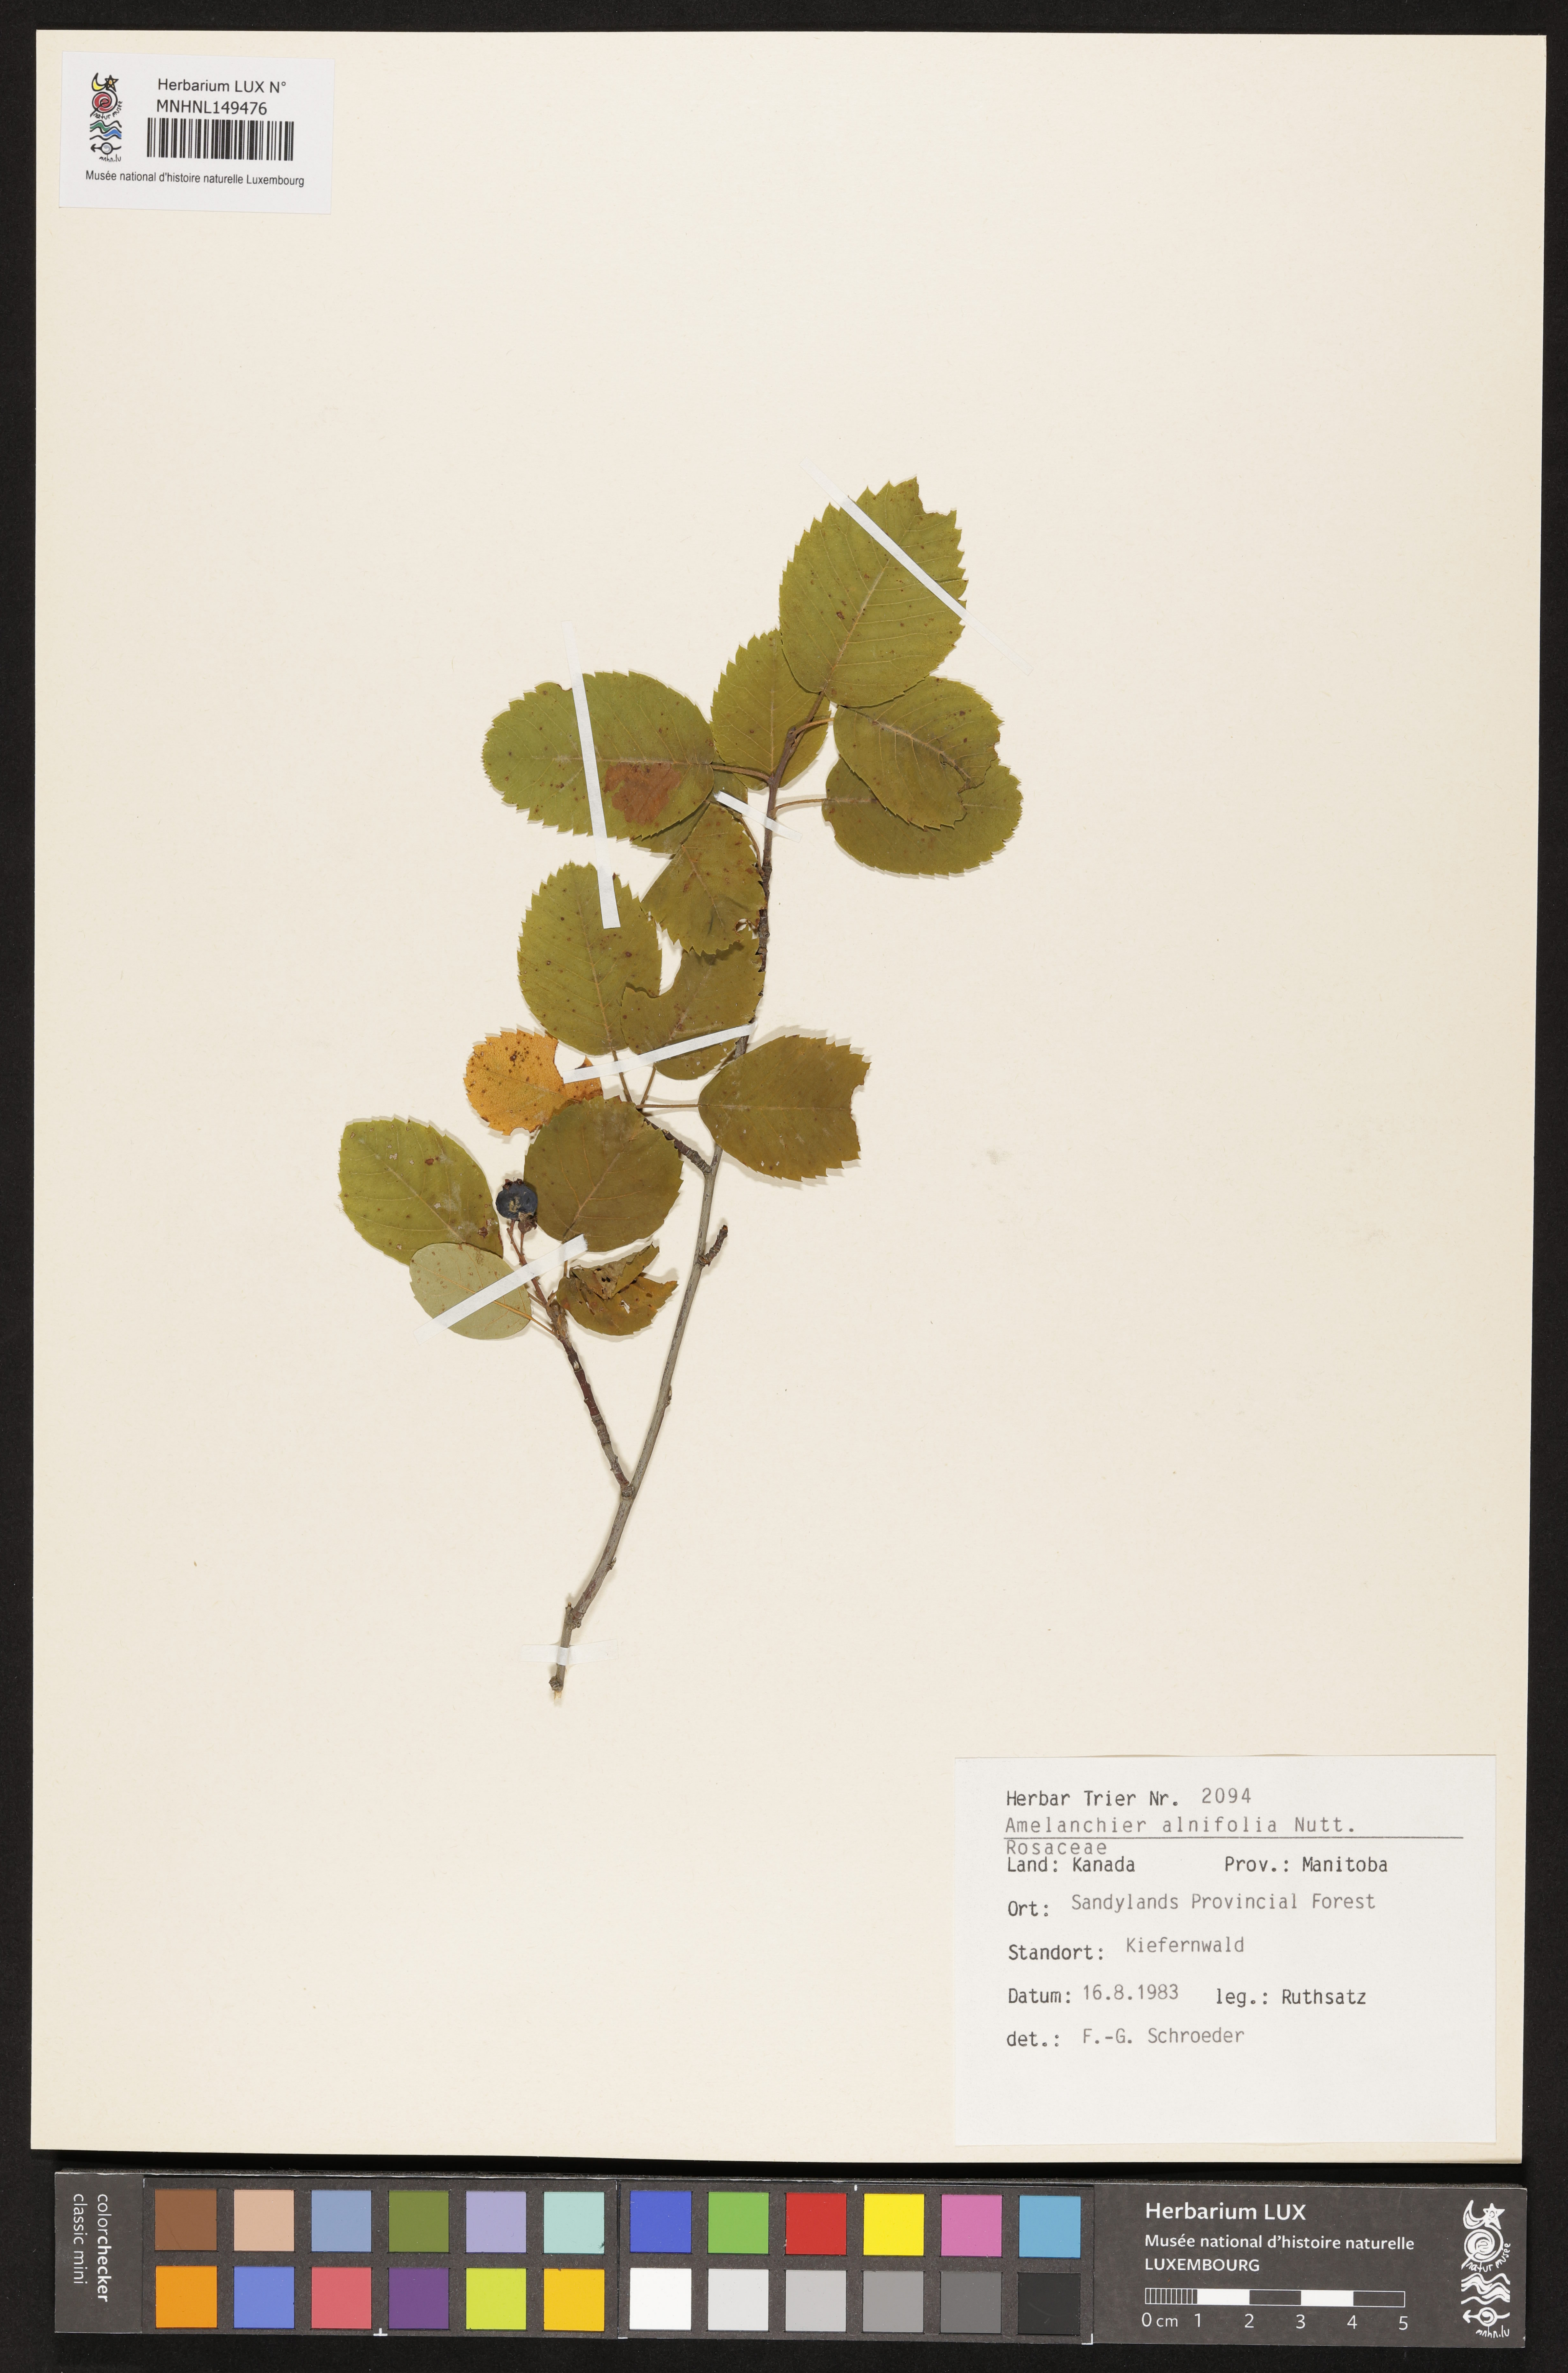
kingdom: Plantae
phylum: Tracheophyta
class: Magnoliopsida
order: Rosales
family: Rosaceae
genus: Amelanchier
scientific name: Amelanchier alnifolia
